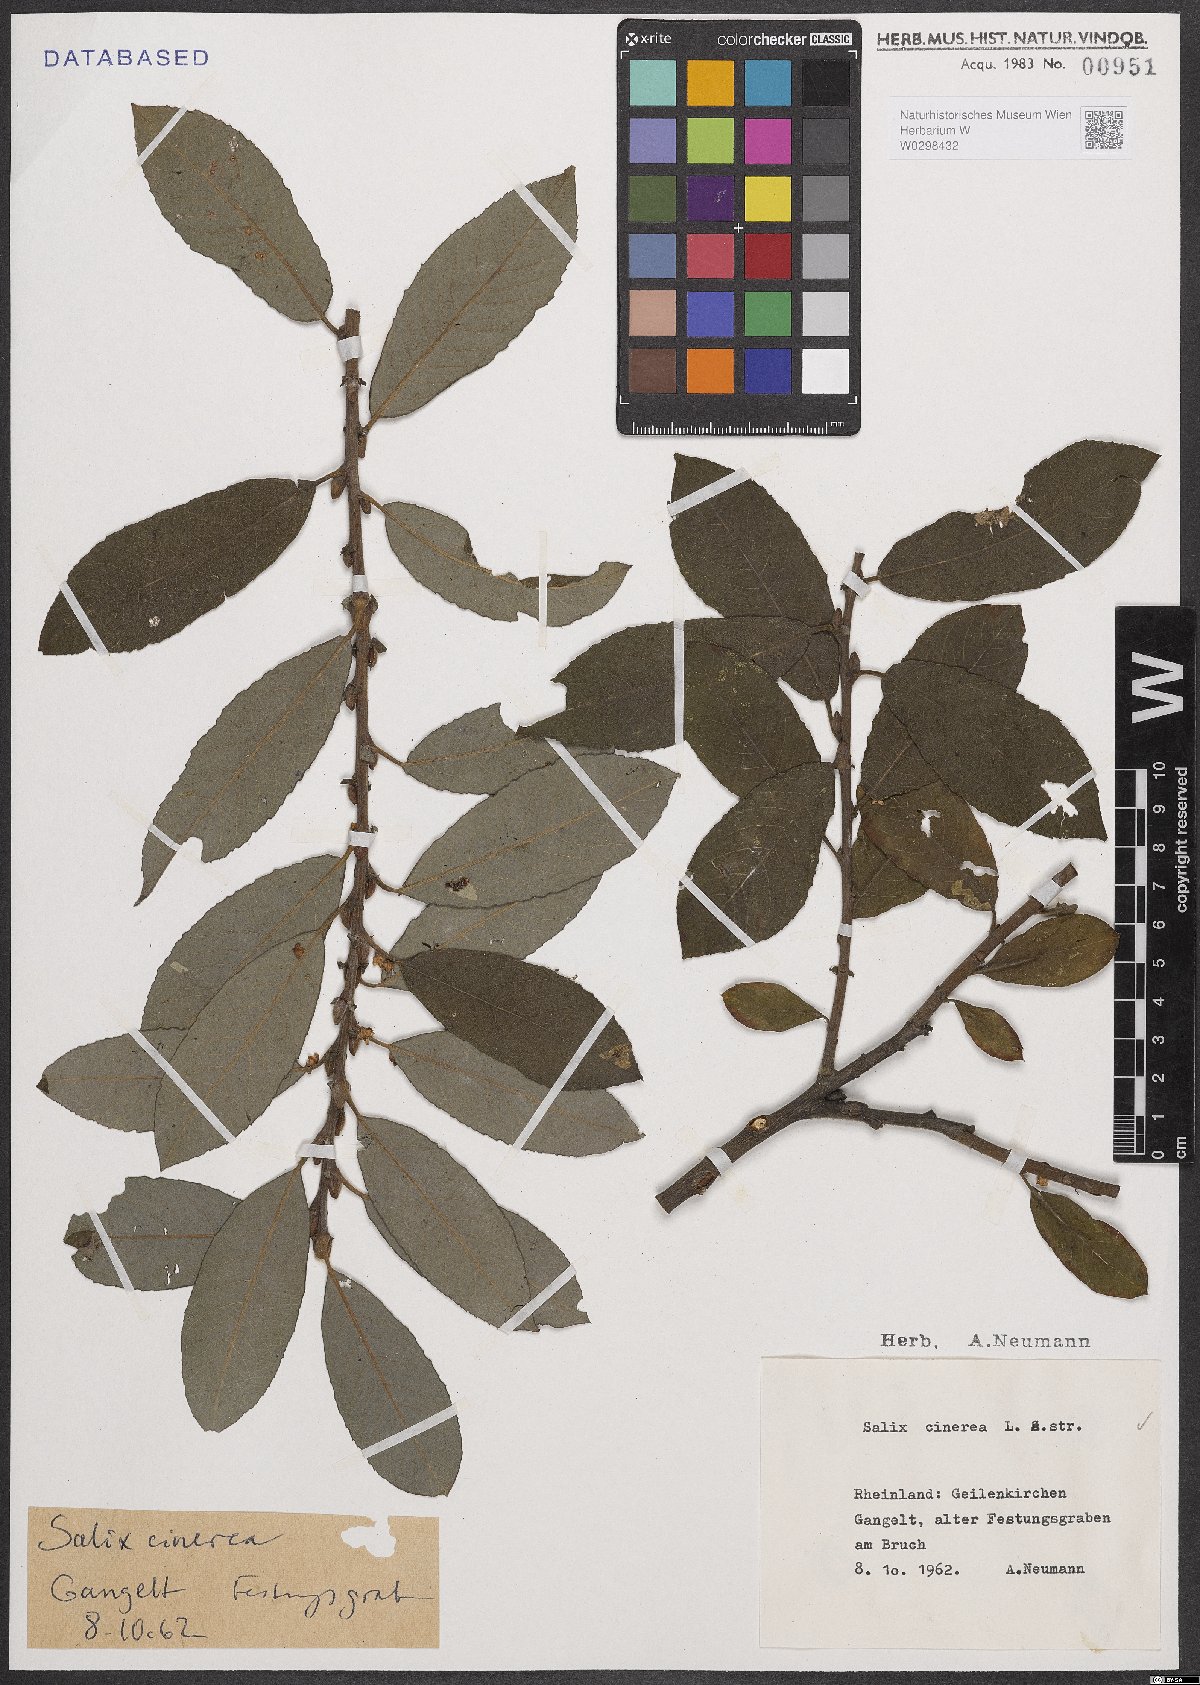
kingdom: Plantae
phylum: Tracheophyta
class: Magnoliopsida
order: Malpighiales
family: Salicaceae
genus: Salix
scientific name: Salix cinerea
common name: Common sallow
